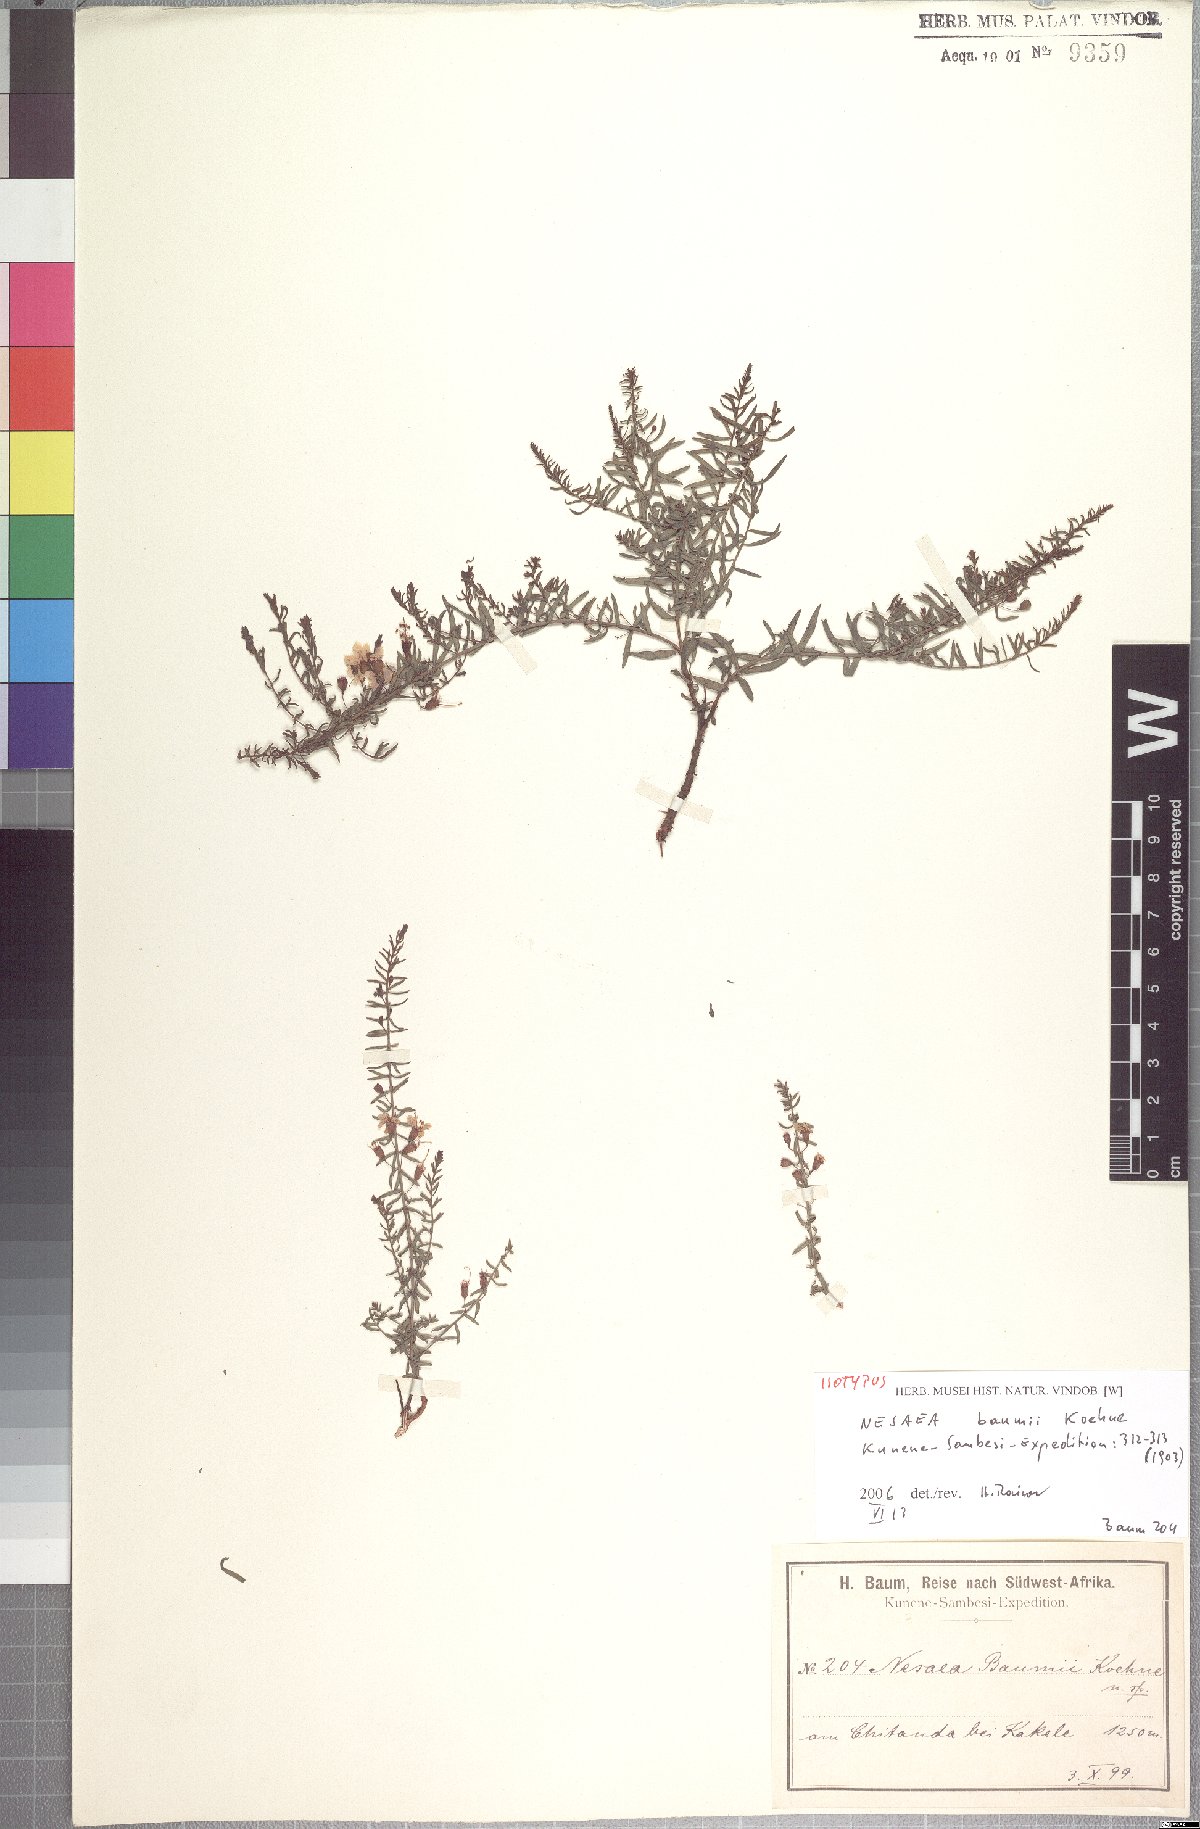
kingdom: Plantae
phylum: Tracheophyta
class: Magnoliopsida
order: Myrtales
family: Lythraceae
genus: Ammannia
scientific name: Ammannia baumii
